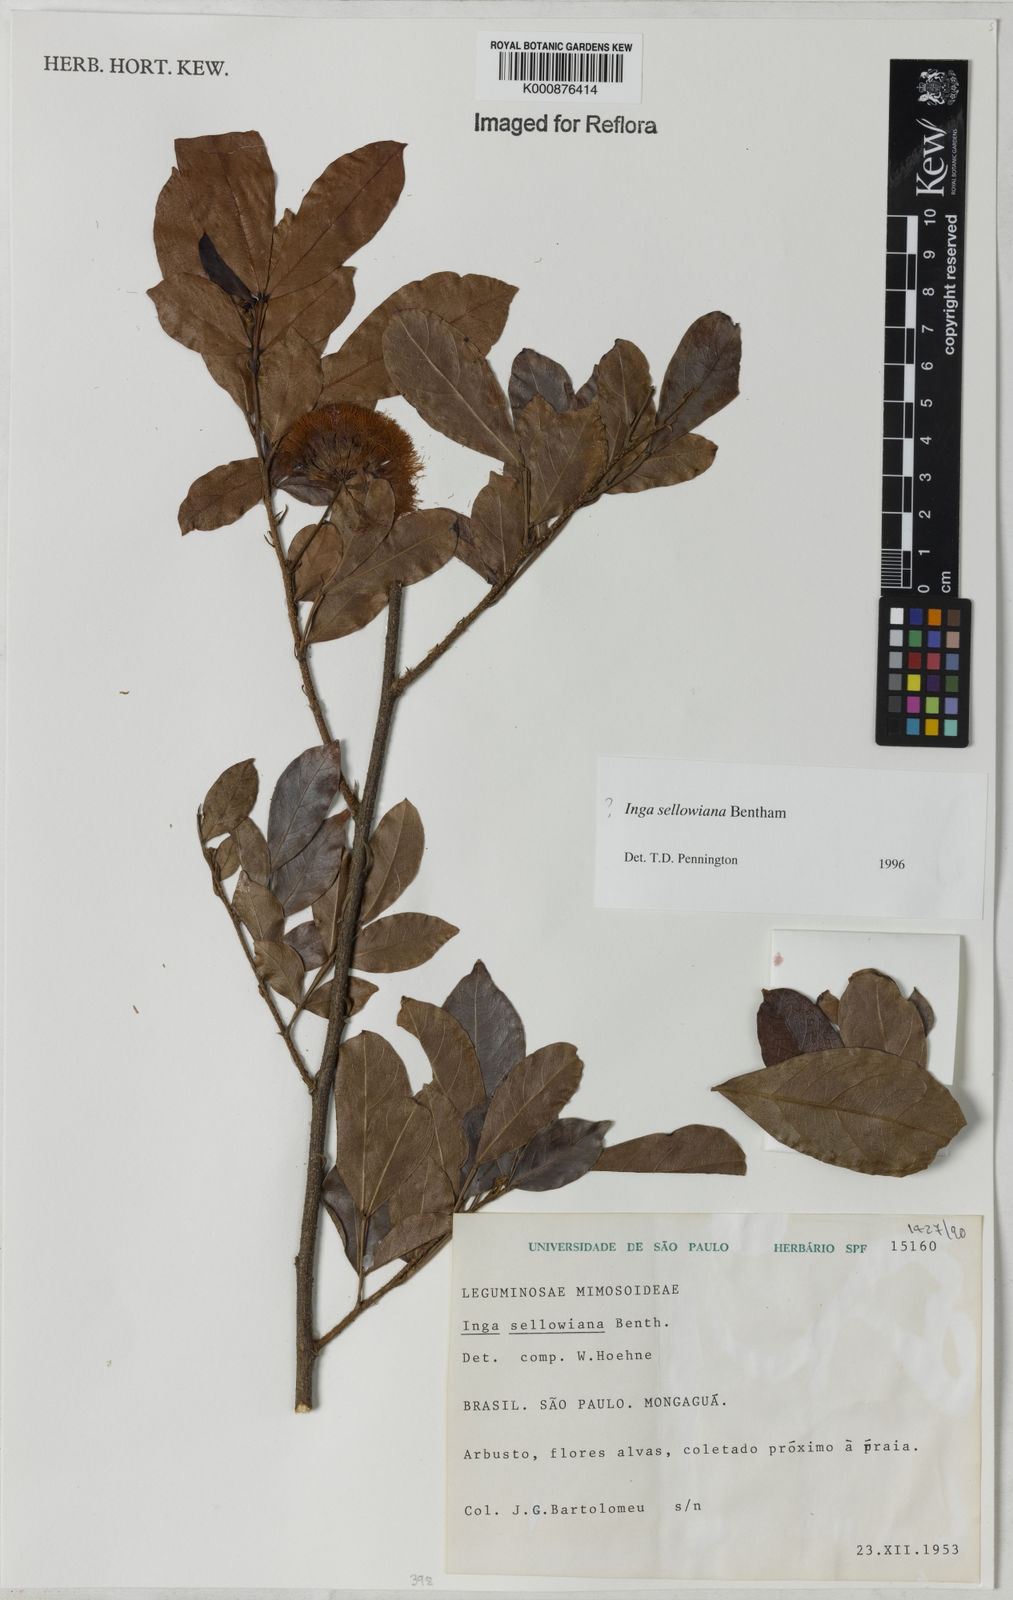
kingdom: Plantae
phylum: Tracheophyta
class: Magnoliopsida
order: Fabales
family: Fabaceae
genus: Inga
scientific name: Inga sellowiana
